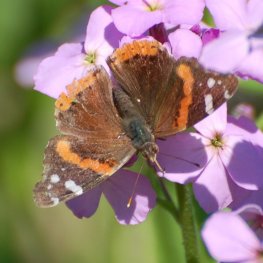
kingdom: Animalia
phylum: Arthropoda
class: Insecta
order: Lepidoptera
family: Nymphalidae
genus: Vanessa
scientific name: Vanessa atalanta
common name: Red Admiral
